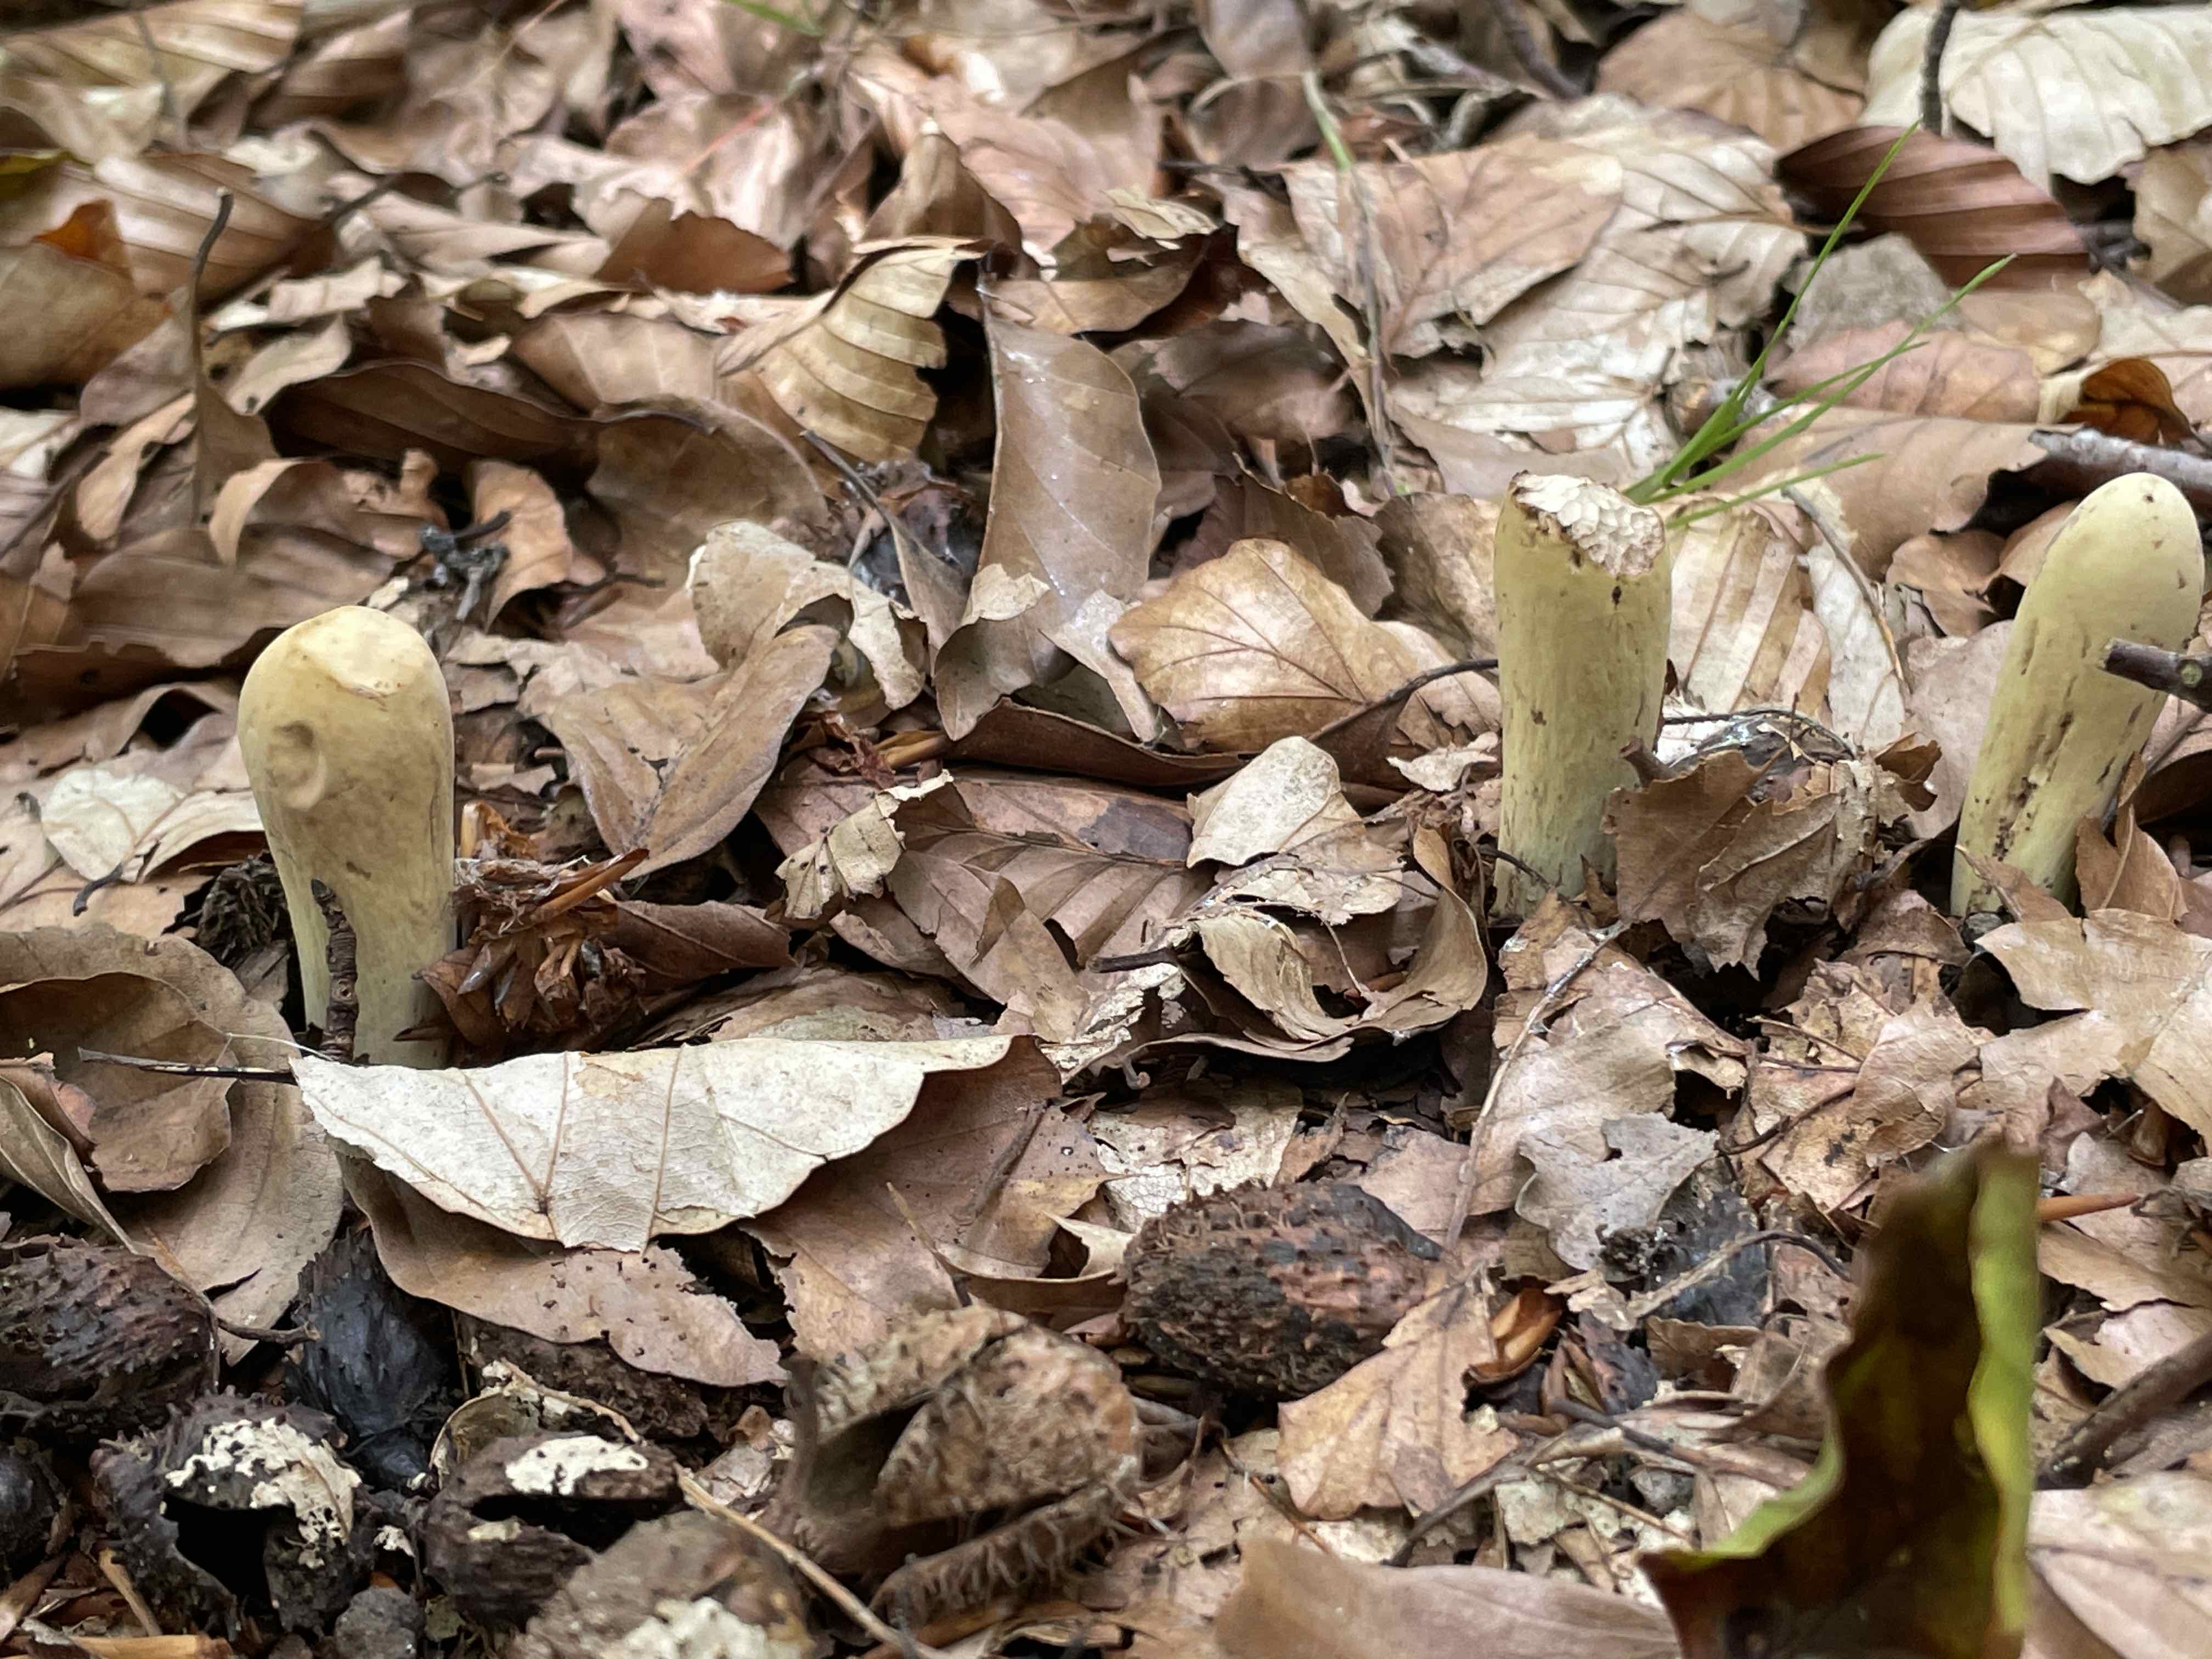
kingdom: Fungi
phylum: Basidiomycota
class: Agaricomycetes
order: Gomphales
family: Clavariadelphaceae
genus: Clavariadelphus
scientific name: Clavariadelphus pistillaris
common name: herkules-kæmpekølle
